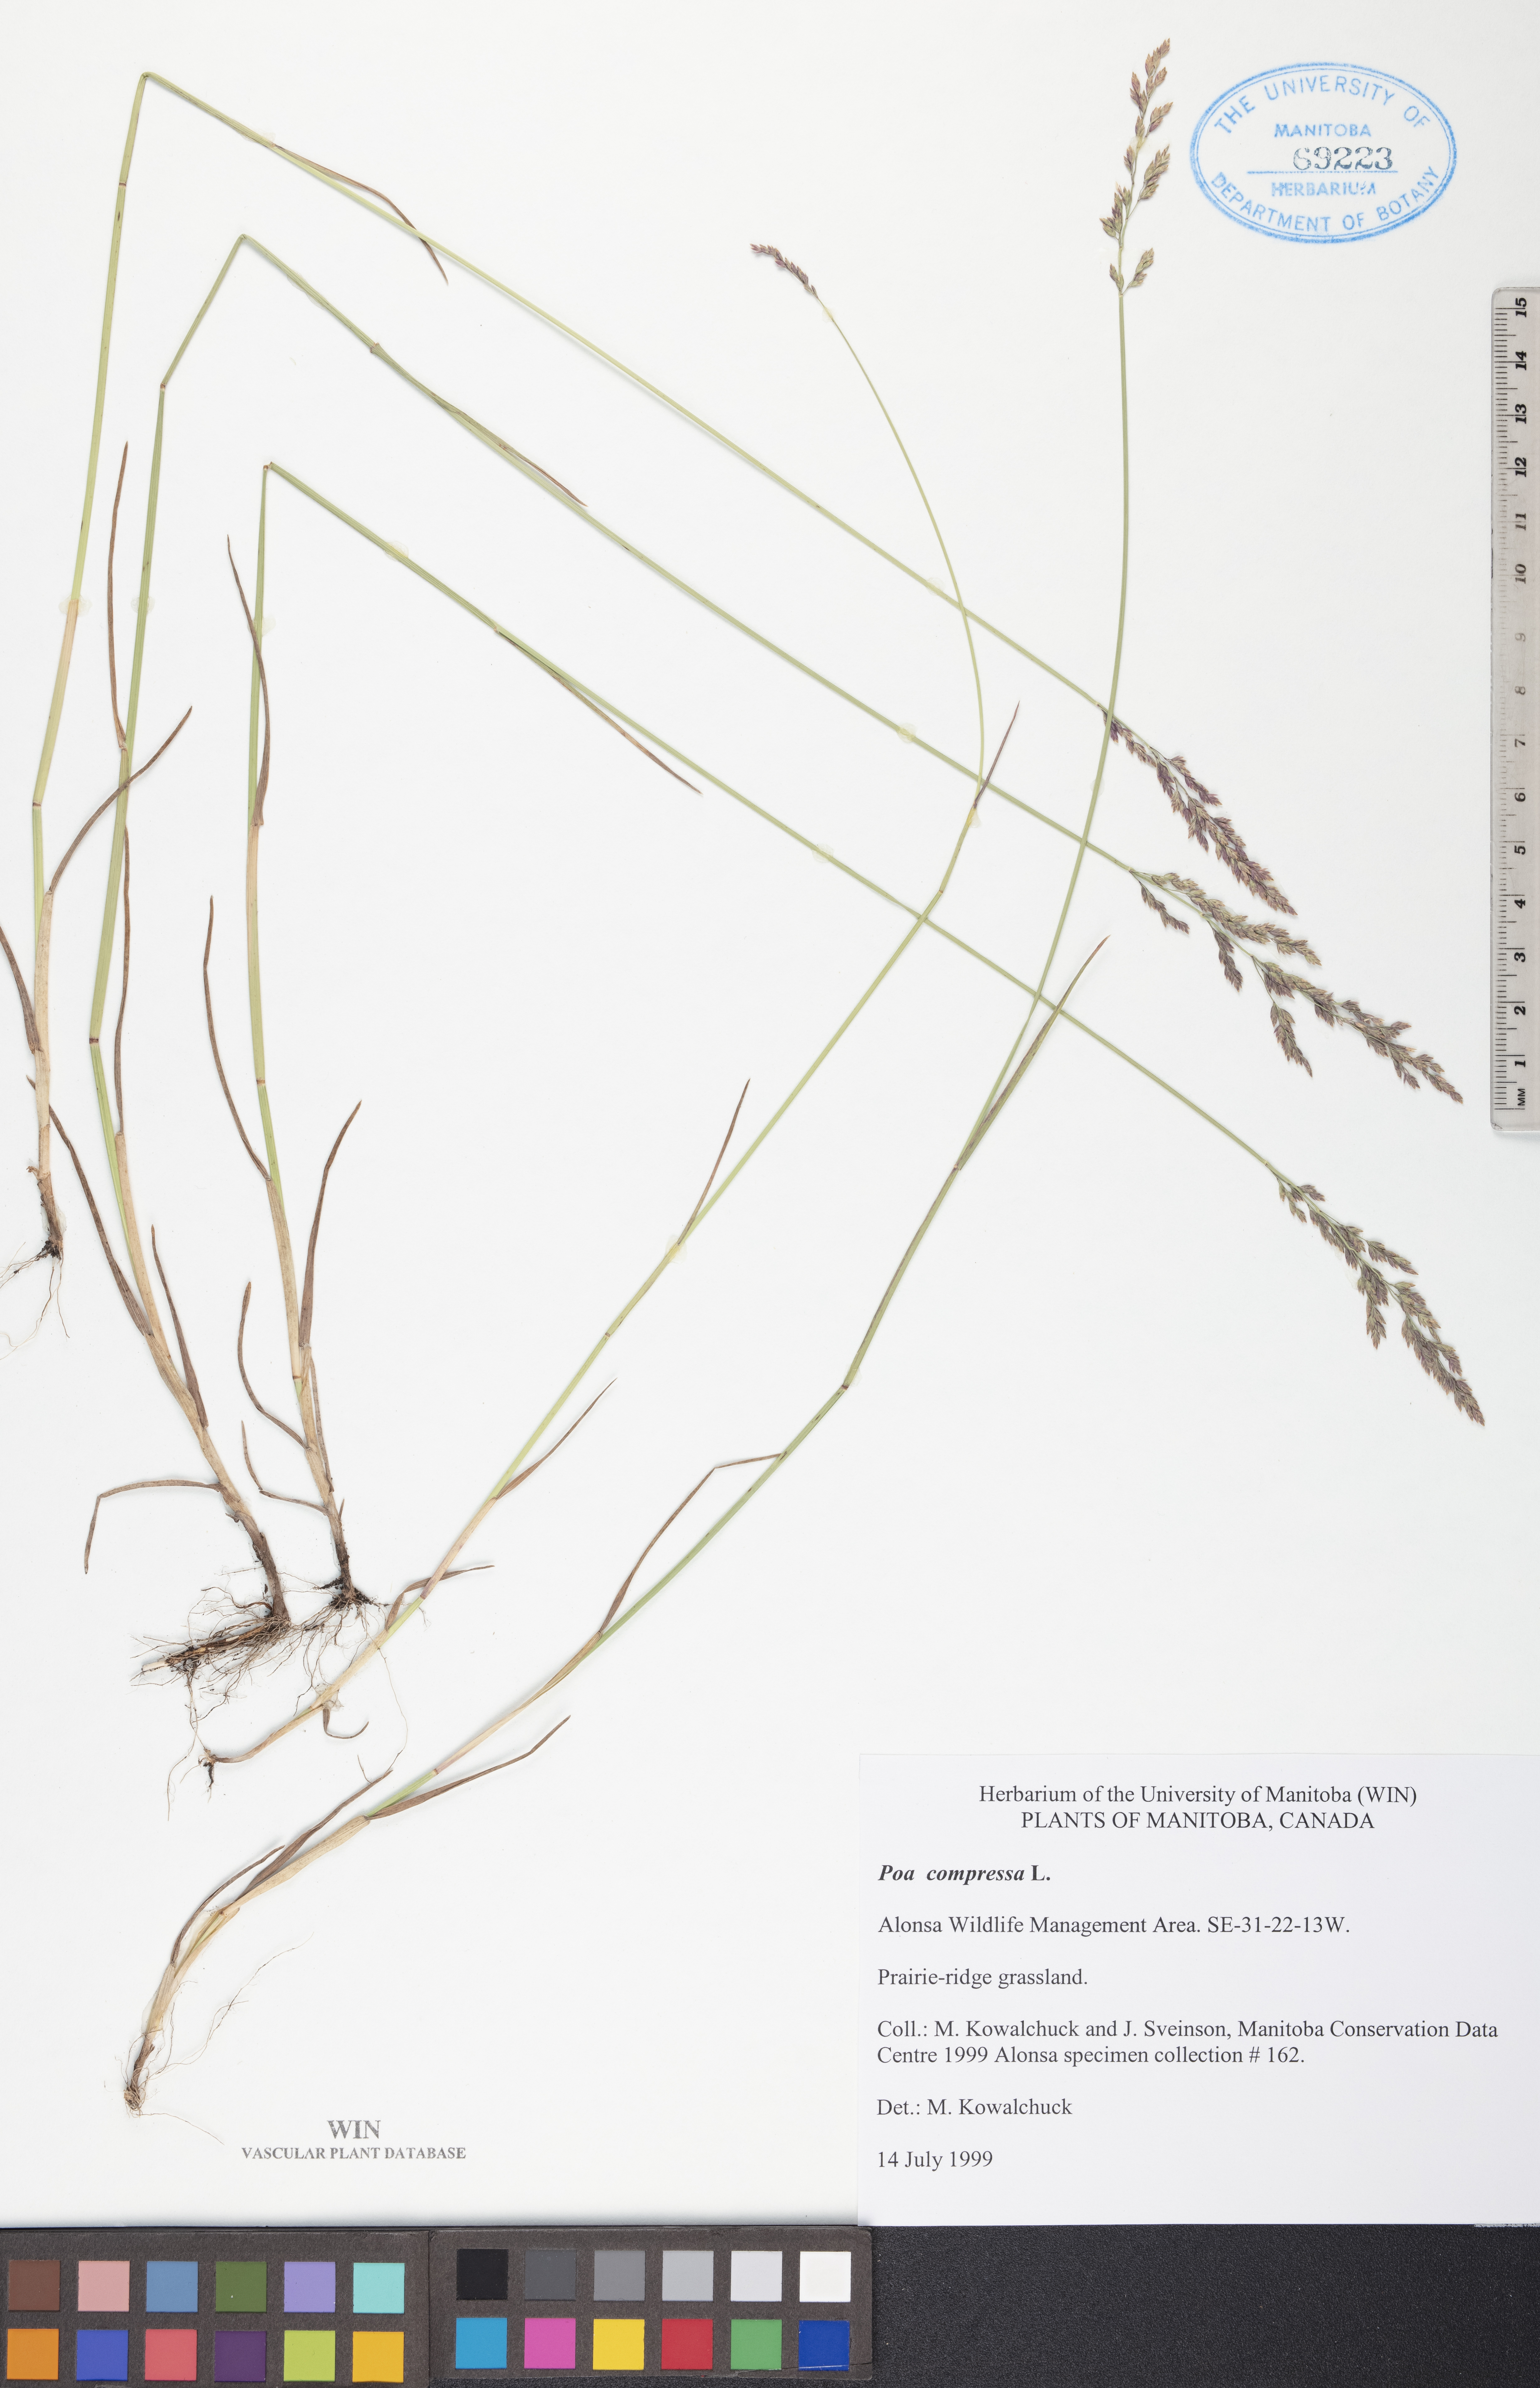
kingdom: Plantae
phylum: Tracheophyta
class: Liliopsida
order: Poales
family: Poaceae
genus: Poa
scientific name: Poa compressa
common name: Canada bluegrass
